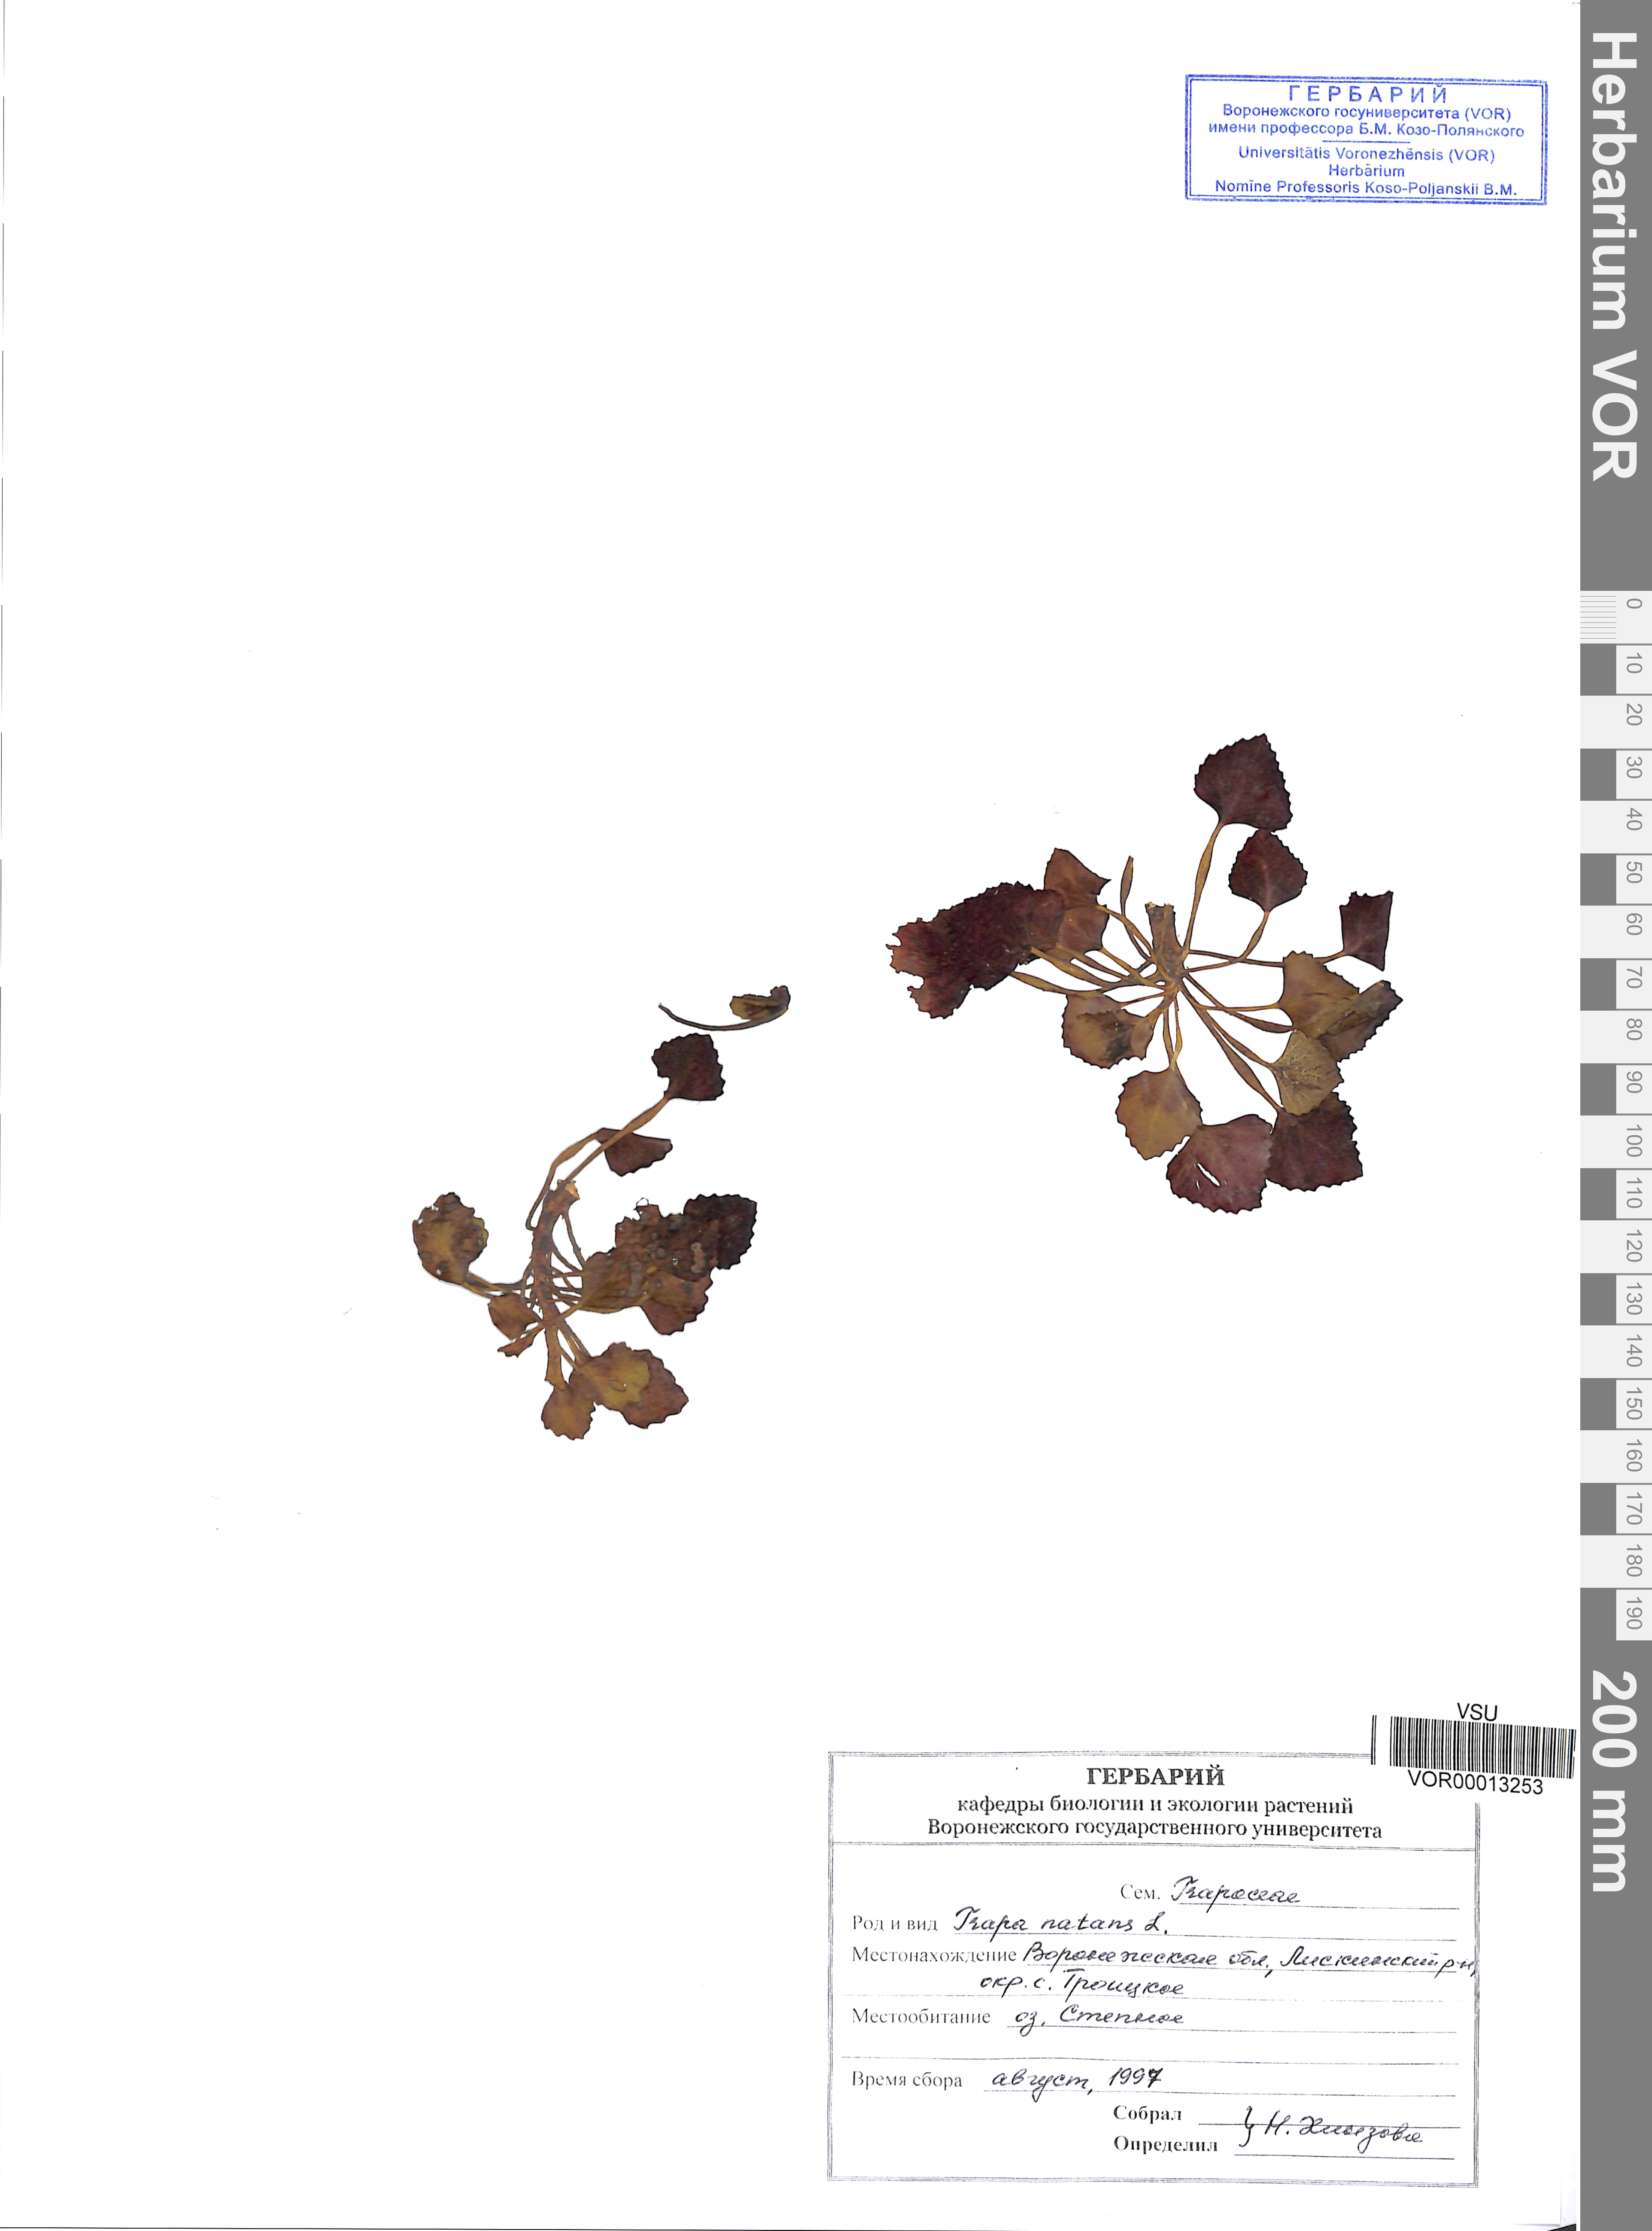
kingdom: Plantae
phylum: Tracheophyta
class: Magnoliopsida
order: Myrtales
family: Lythraceae
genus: Trapa
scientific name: Trapa natans
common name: Water chestnut
